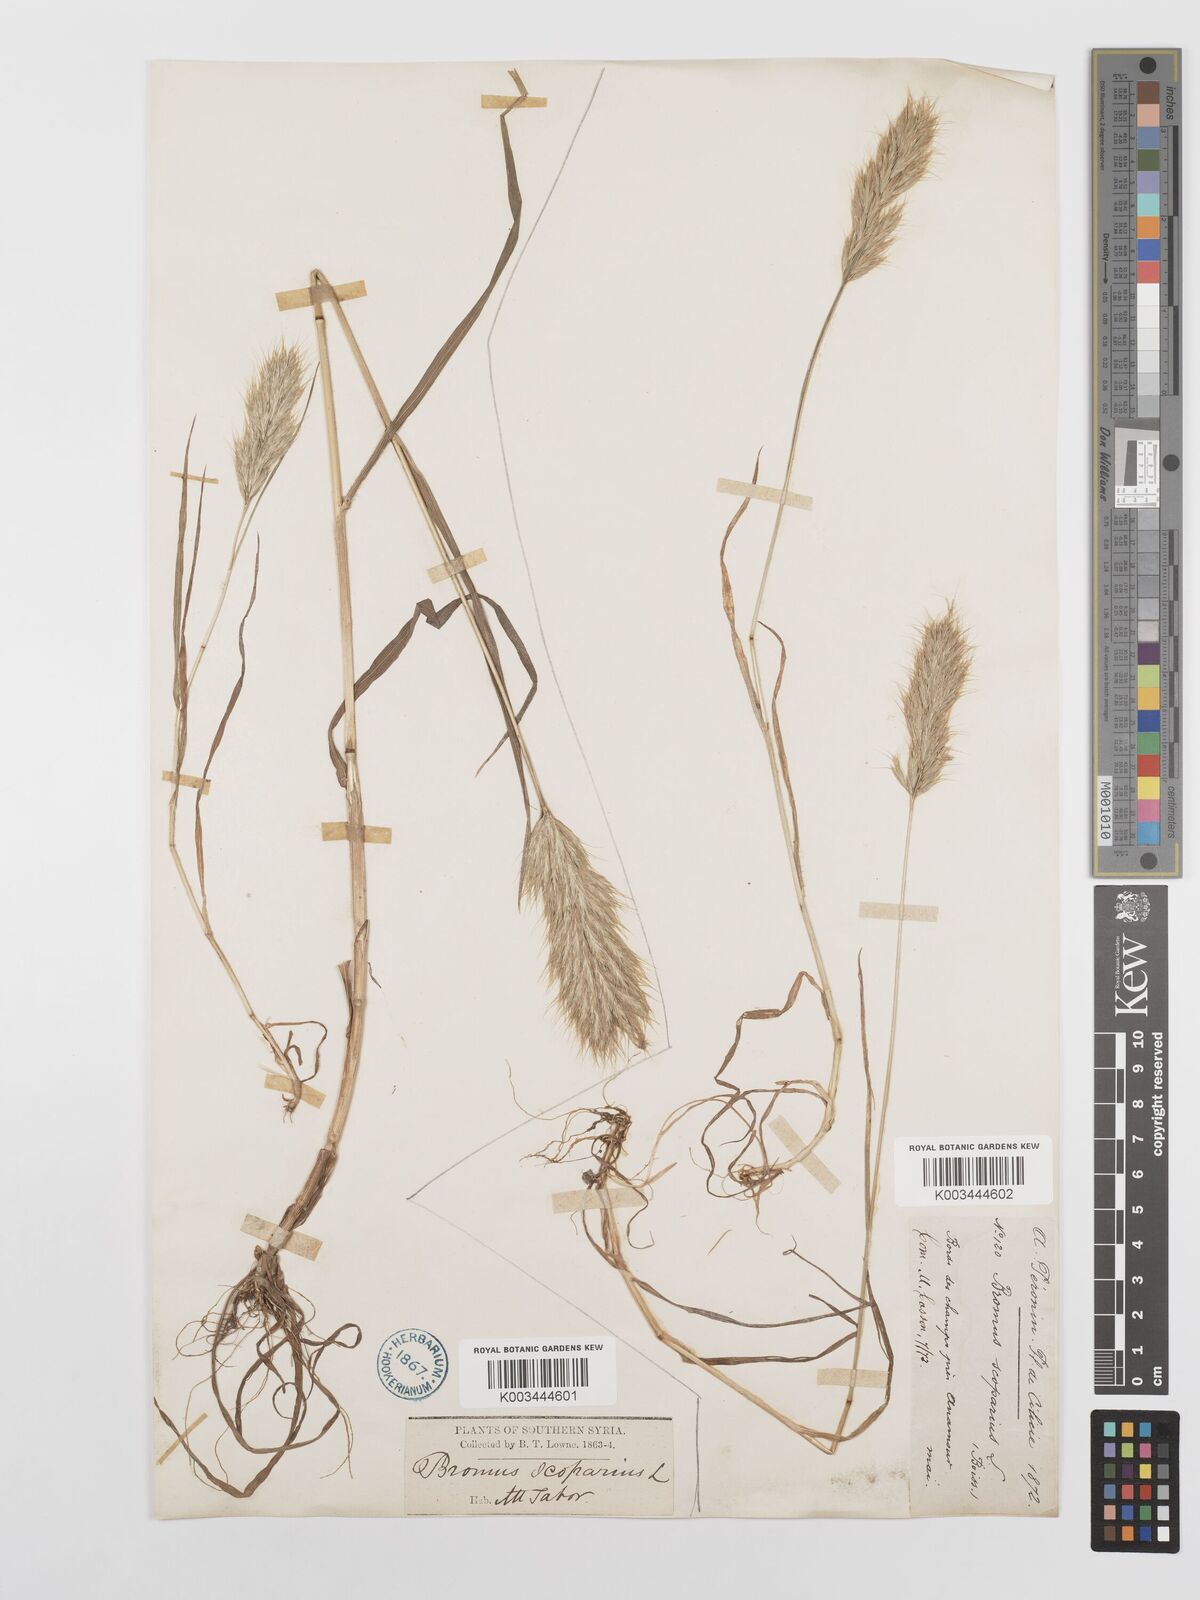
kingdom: Plantae
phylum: Tracheophyta
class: Liliopsida
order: Poales
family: Poaceae
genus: Bromus
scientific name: Bromus scoparius
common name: Broom brome
